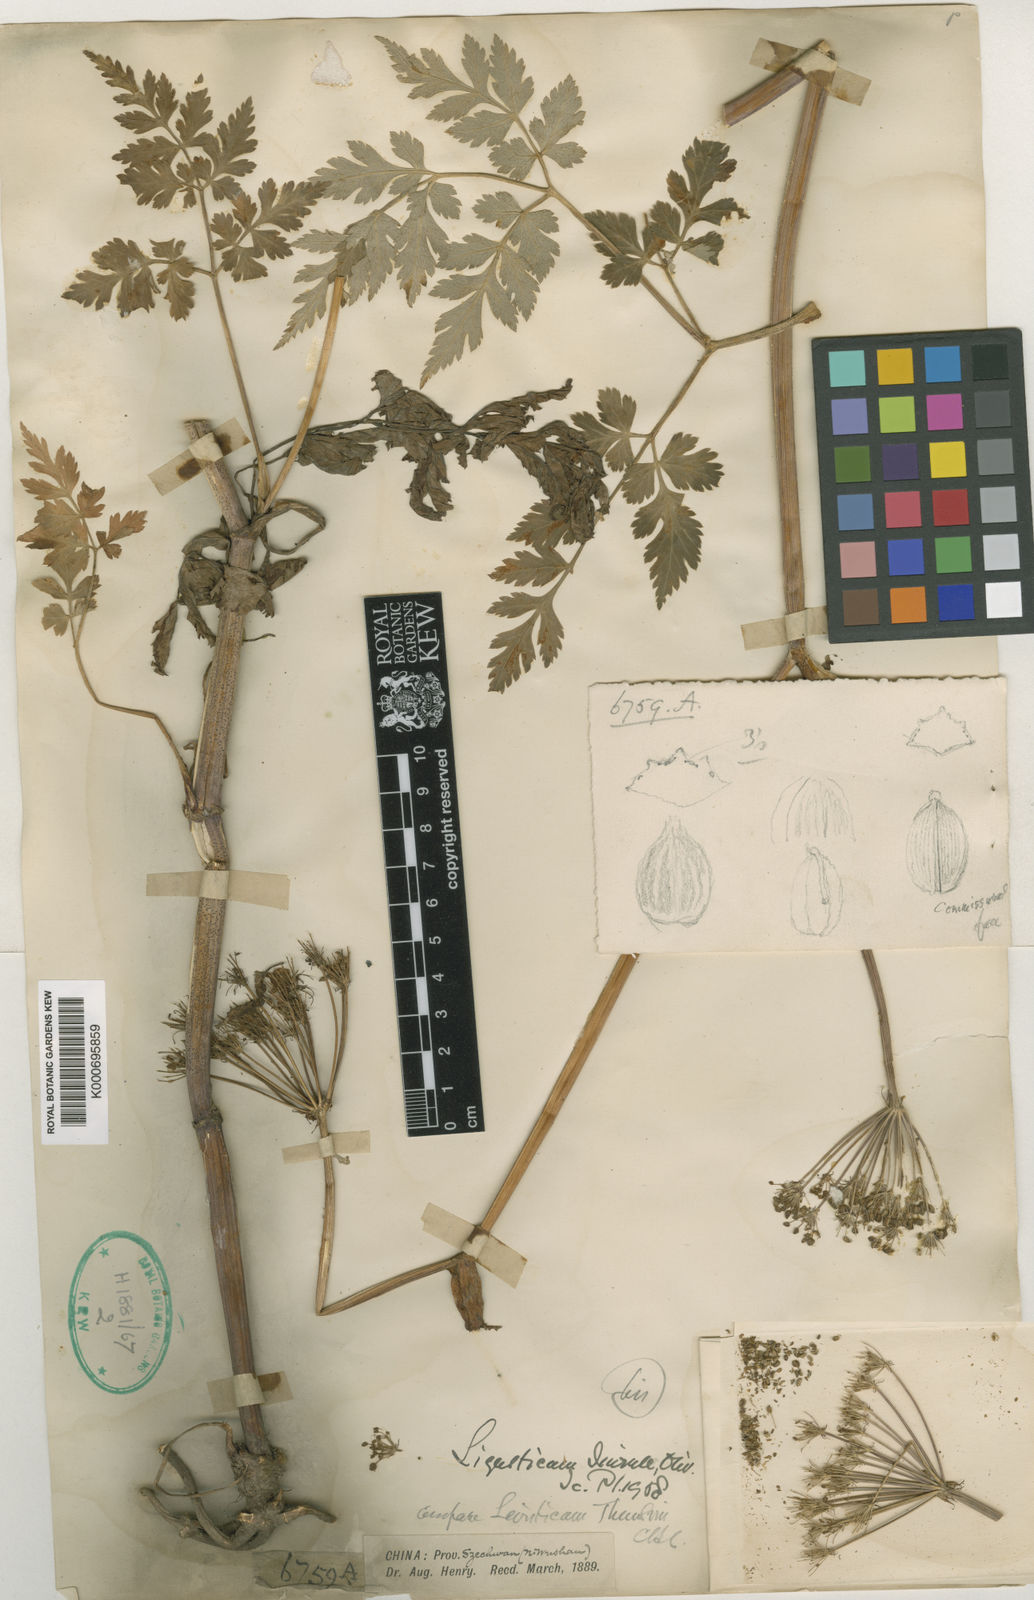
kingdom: Plantae
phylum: Tracheophyta
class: Magnoliopsida
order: Apiales
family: Apiaceae
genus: Conioselinum
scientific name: Conioselinum anthriscoides
